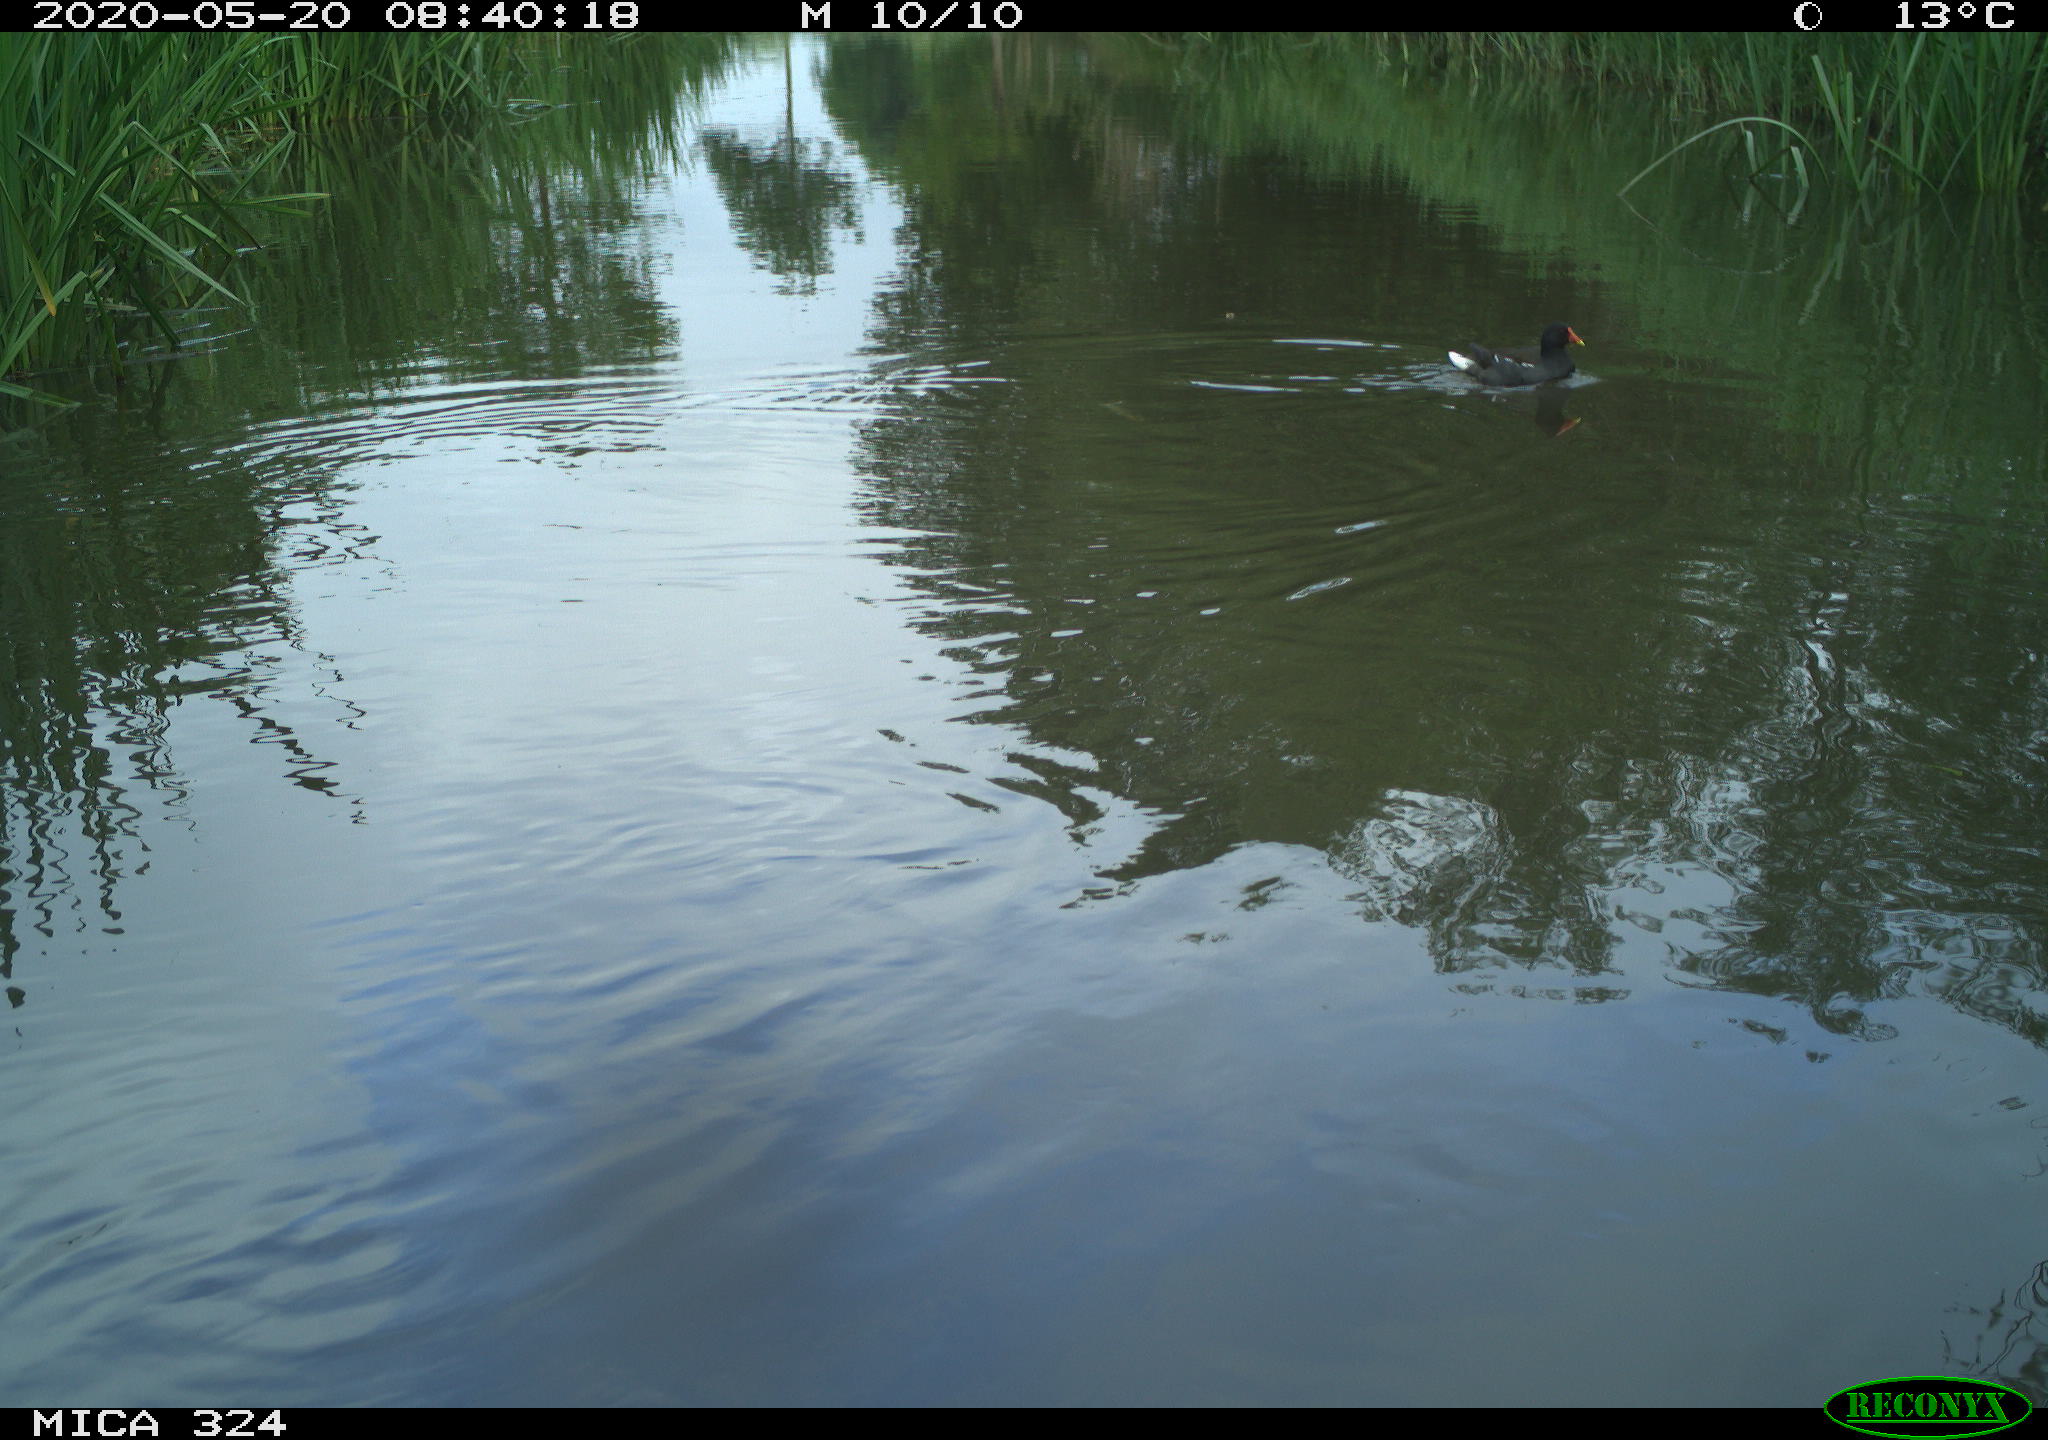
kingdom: Animalia
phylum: Chordata
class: Aves
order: Gruiformes
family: Rallidae
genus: Gallinula
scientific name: Gallinula chloropus
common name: Common moorhen
